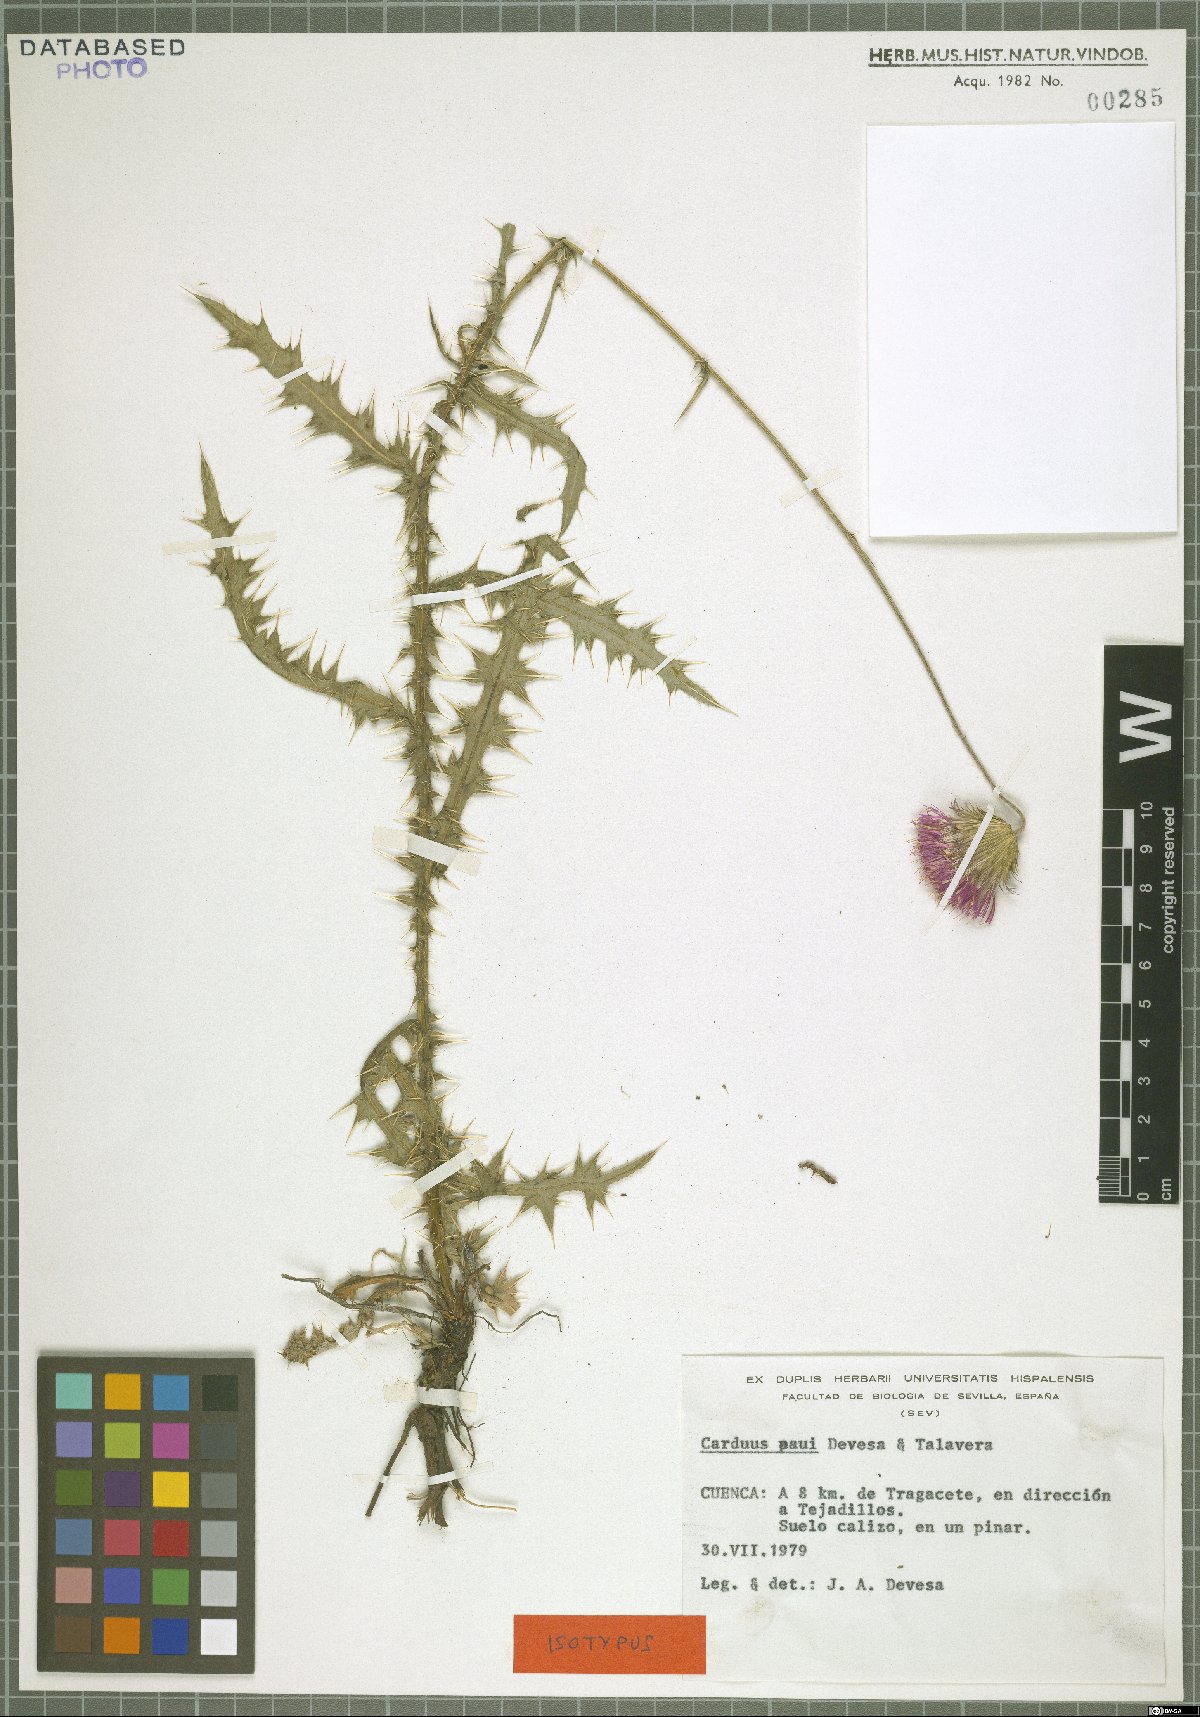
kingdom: Plantae
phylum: Tracheophyta
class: Magnoliopsida
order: Asterales
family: Asteraceae
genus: Carduus
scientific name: Carduus paui
